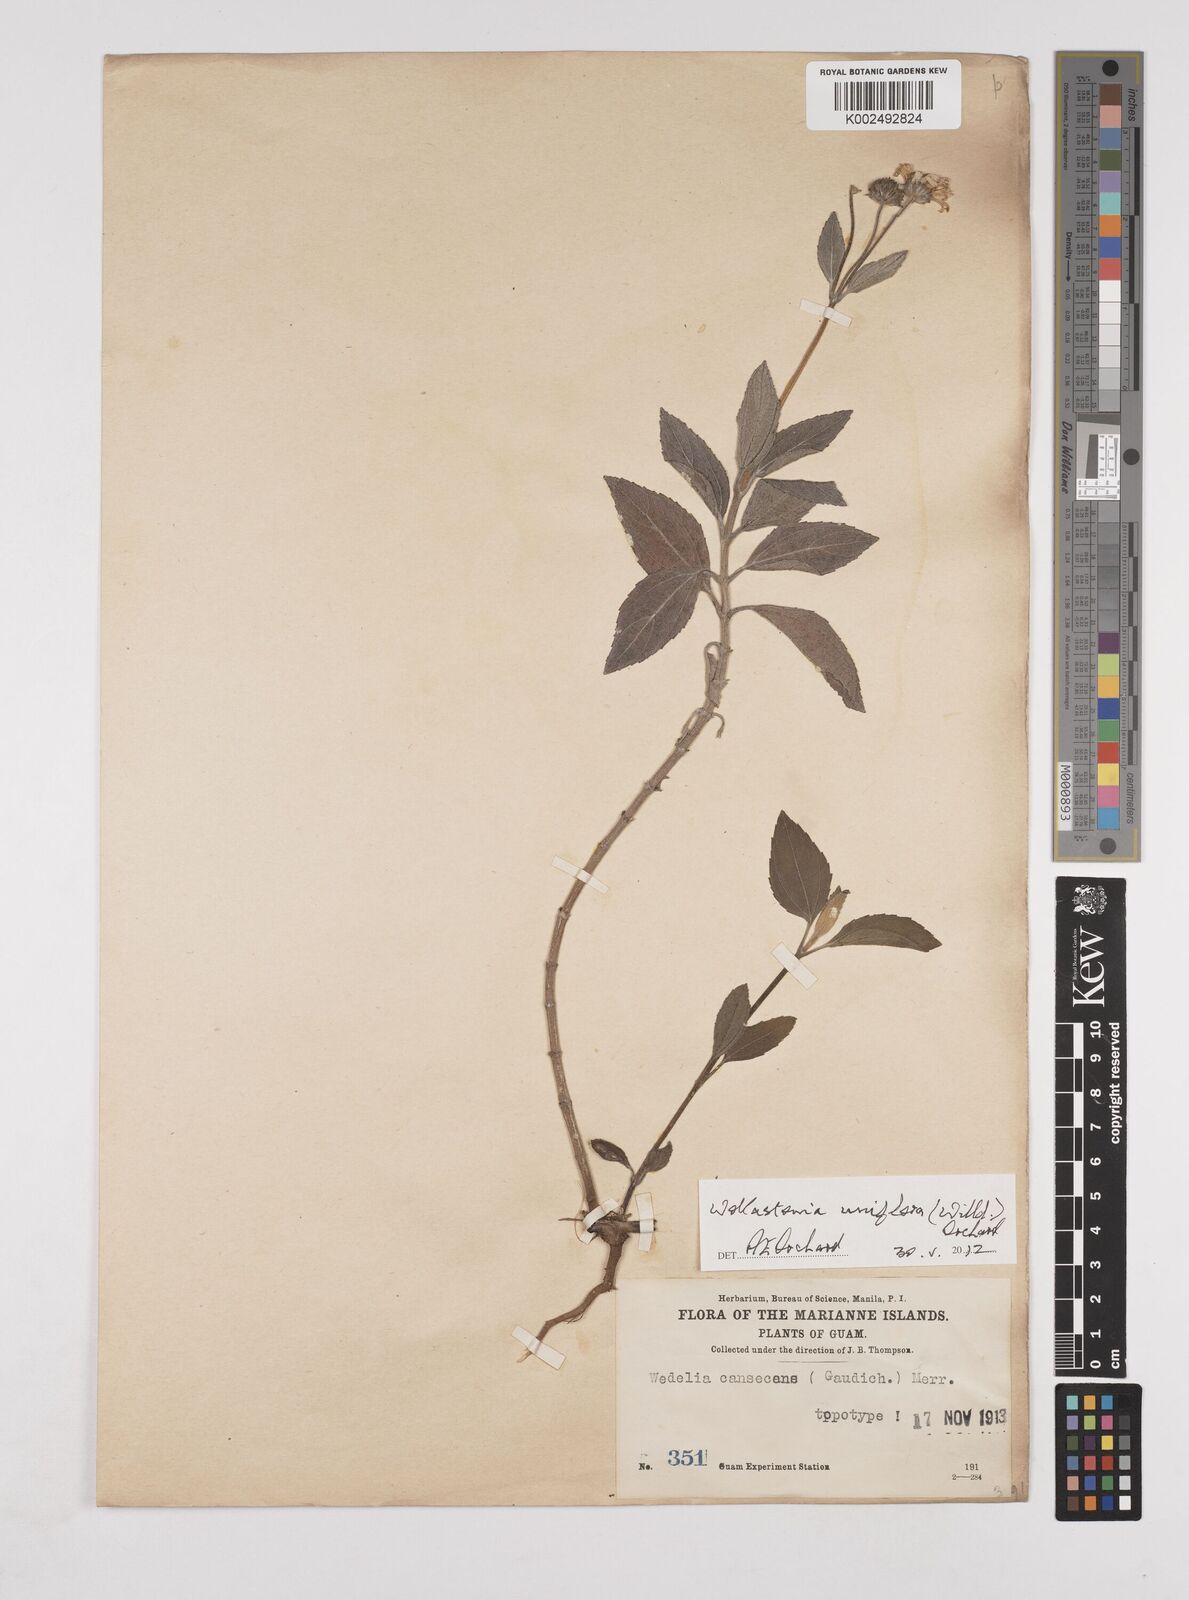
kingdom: Plantae
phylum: Tracheophyta
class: Magnoliopsida
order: Asterales
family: Asteraceae
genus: Wollastonia
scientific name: Wollastonia uniflora
